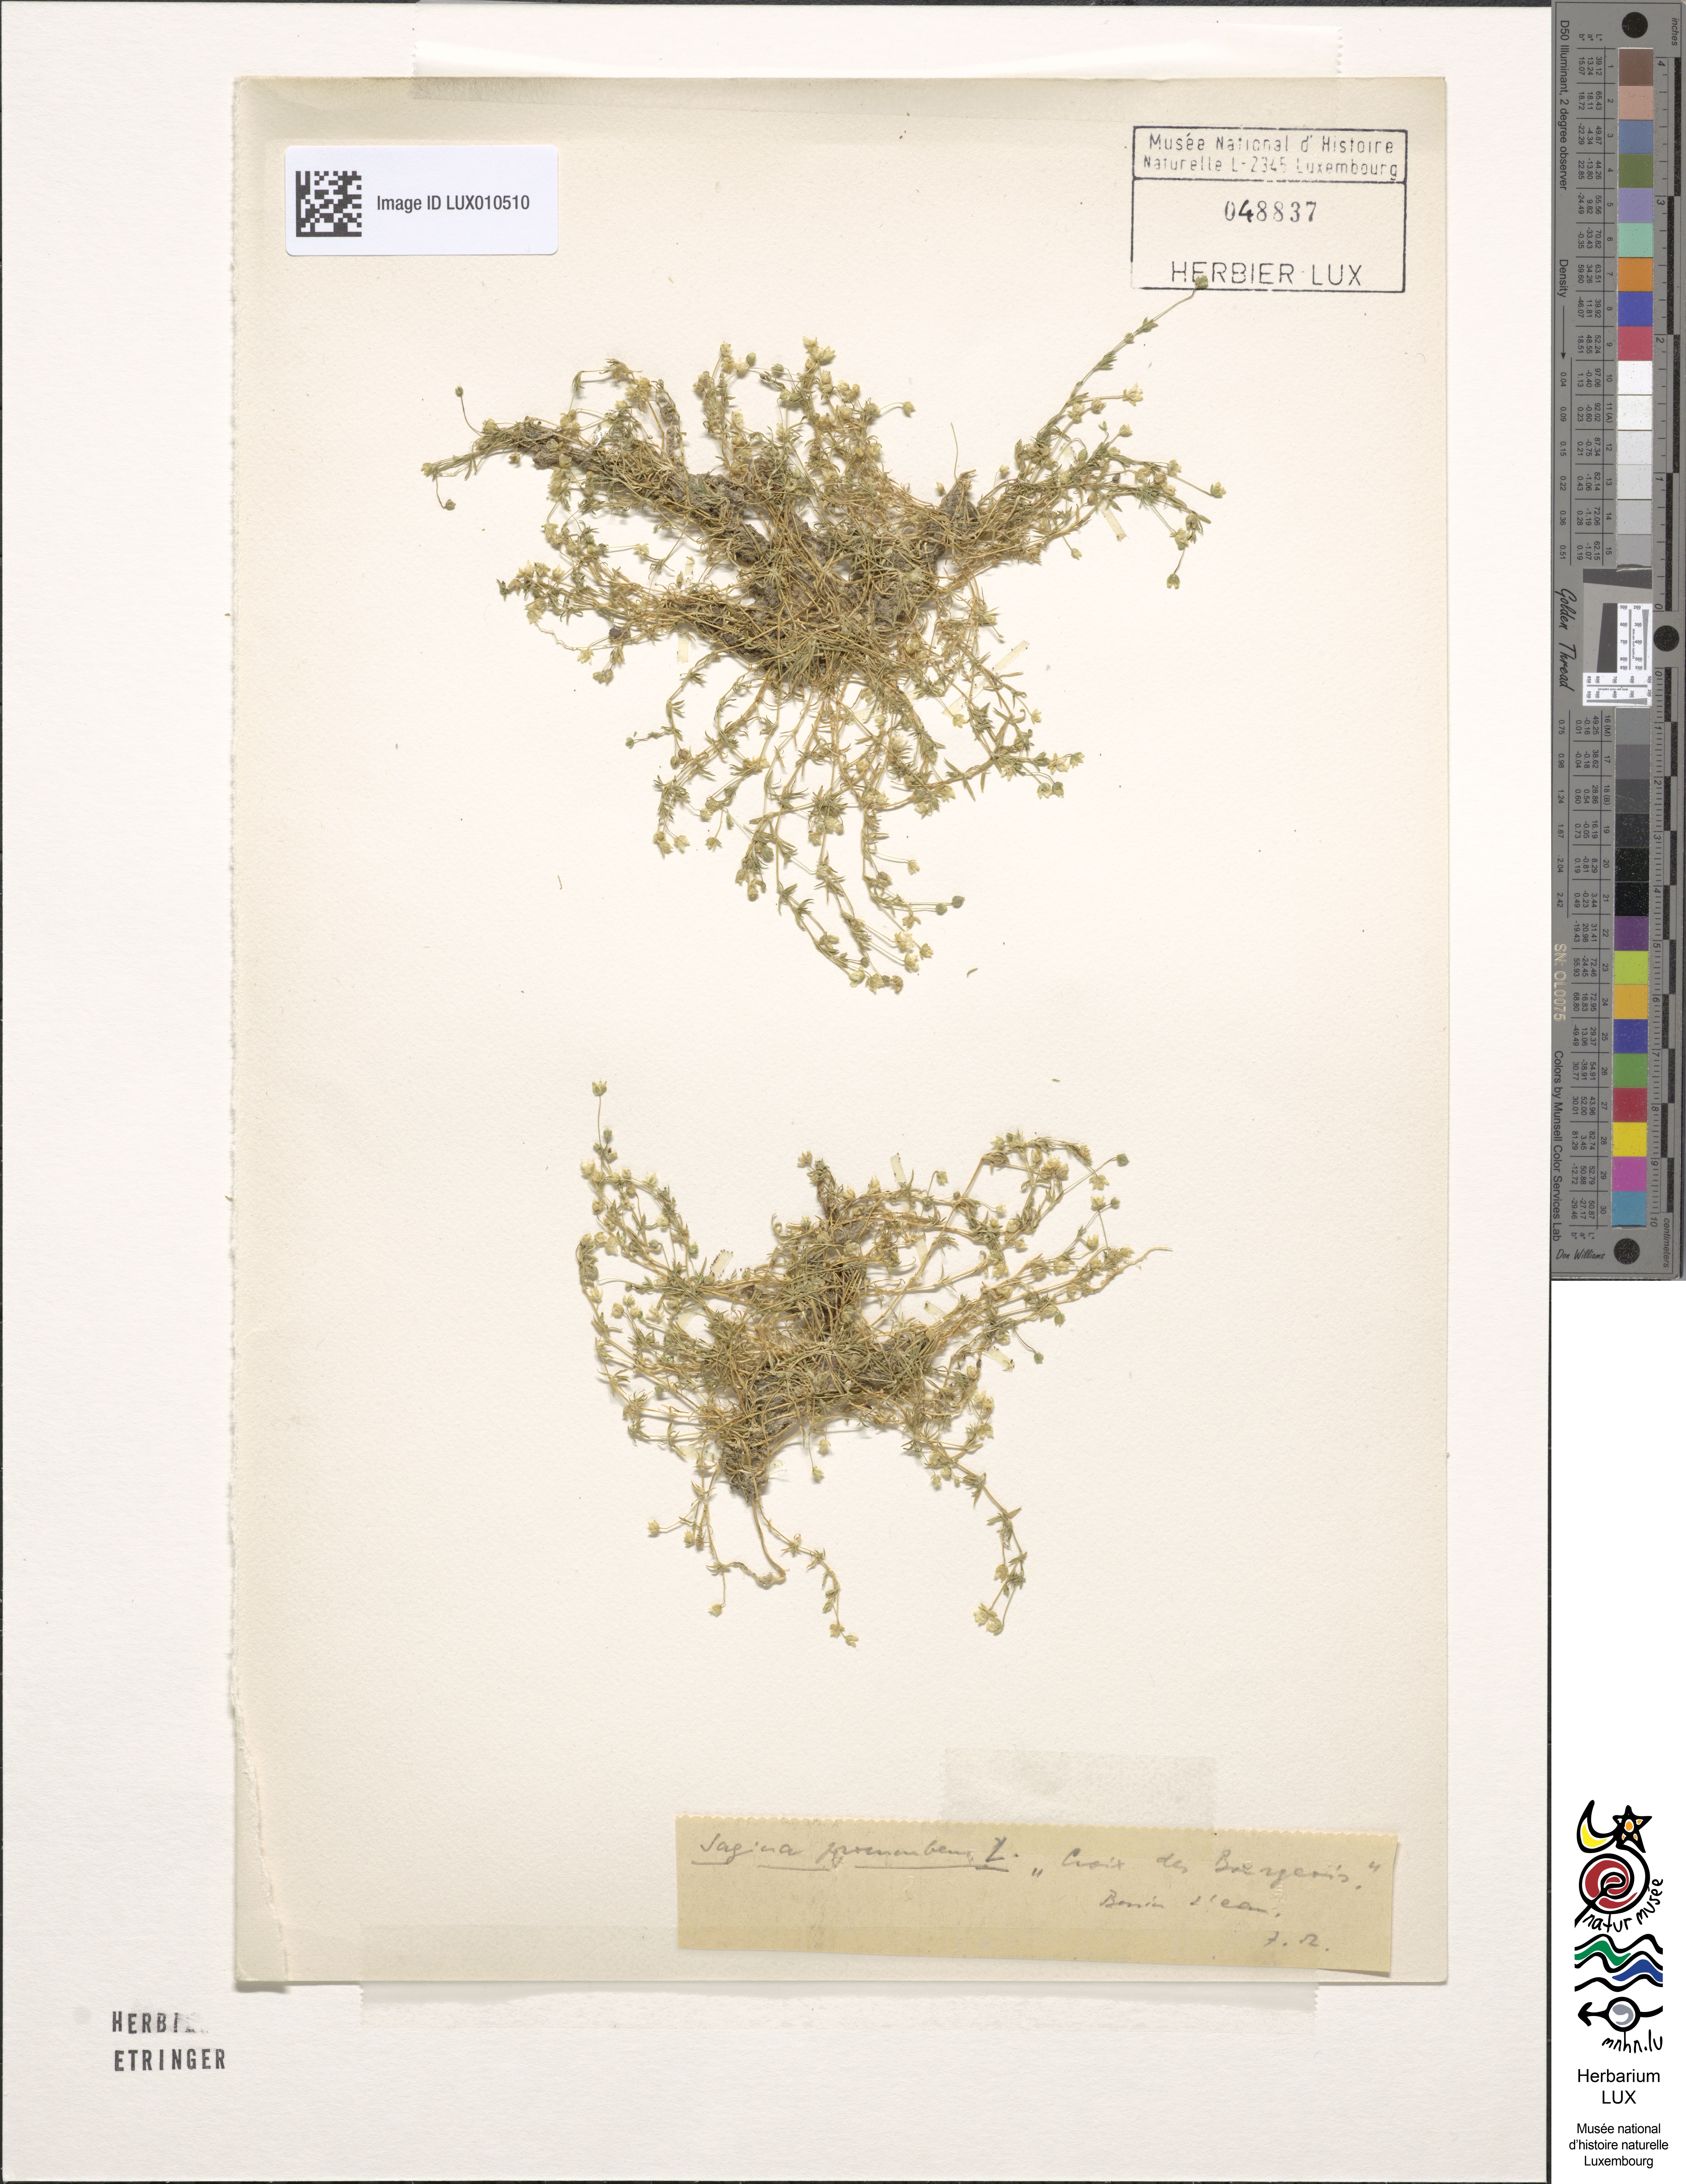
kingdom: Plantae
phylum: Tracheophyta
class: Magnoliopsida
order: Caryophyllales
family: Caryophyllaceae
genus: Sagina
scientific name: Sagina procumbens
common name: Procumbent pearlwort
